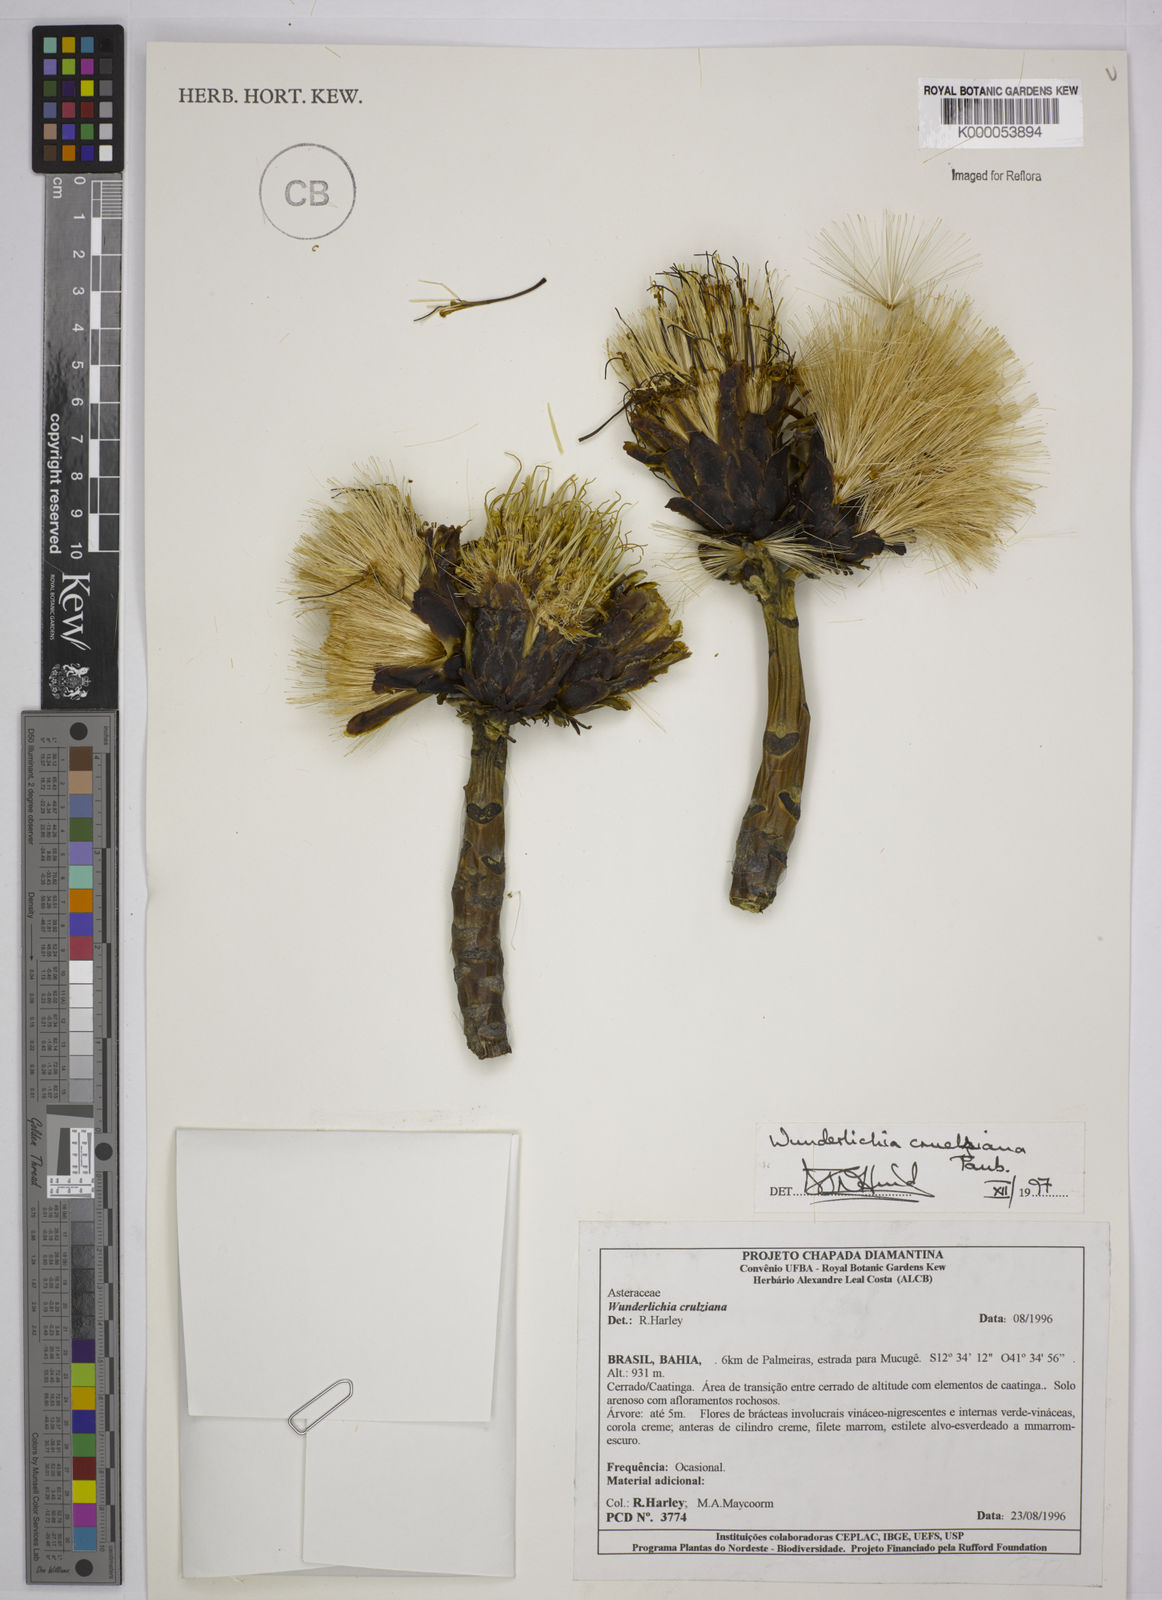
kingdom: Plantae
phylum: Tracheophyta
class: Magnoliopsida
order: Asterales
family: Asteraceae
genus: Wunderlichia
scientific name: Wunderlichia
